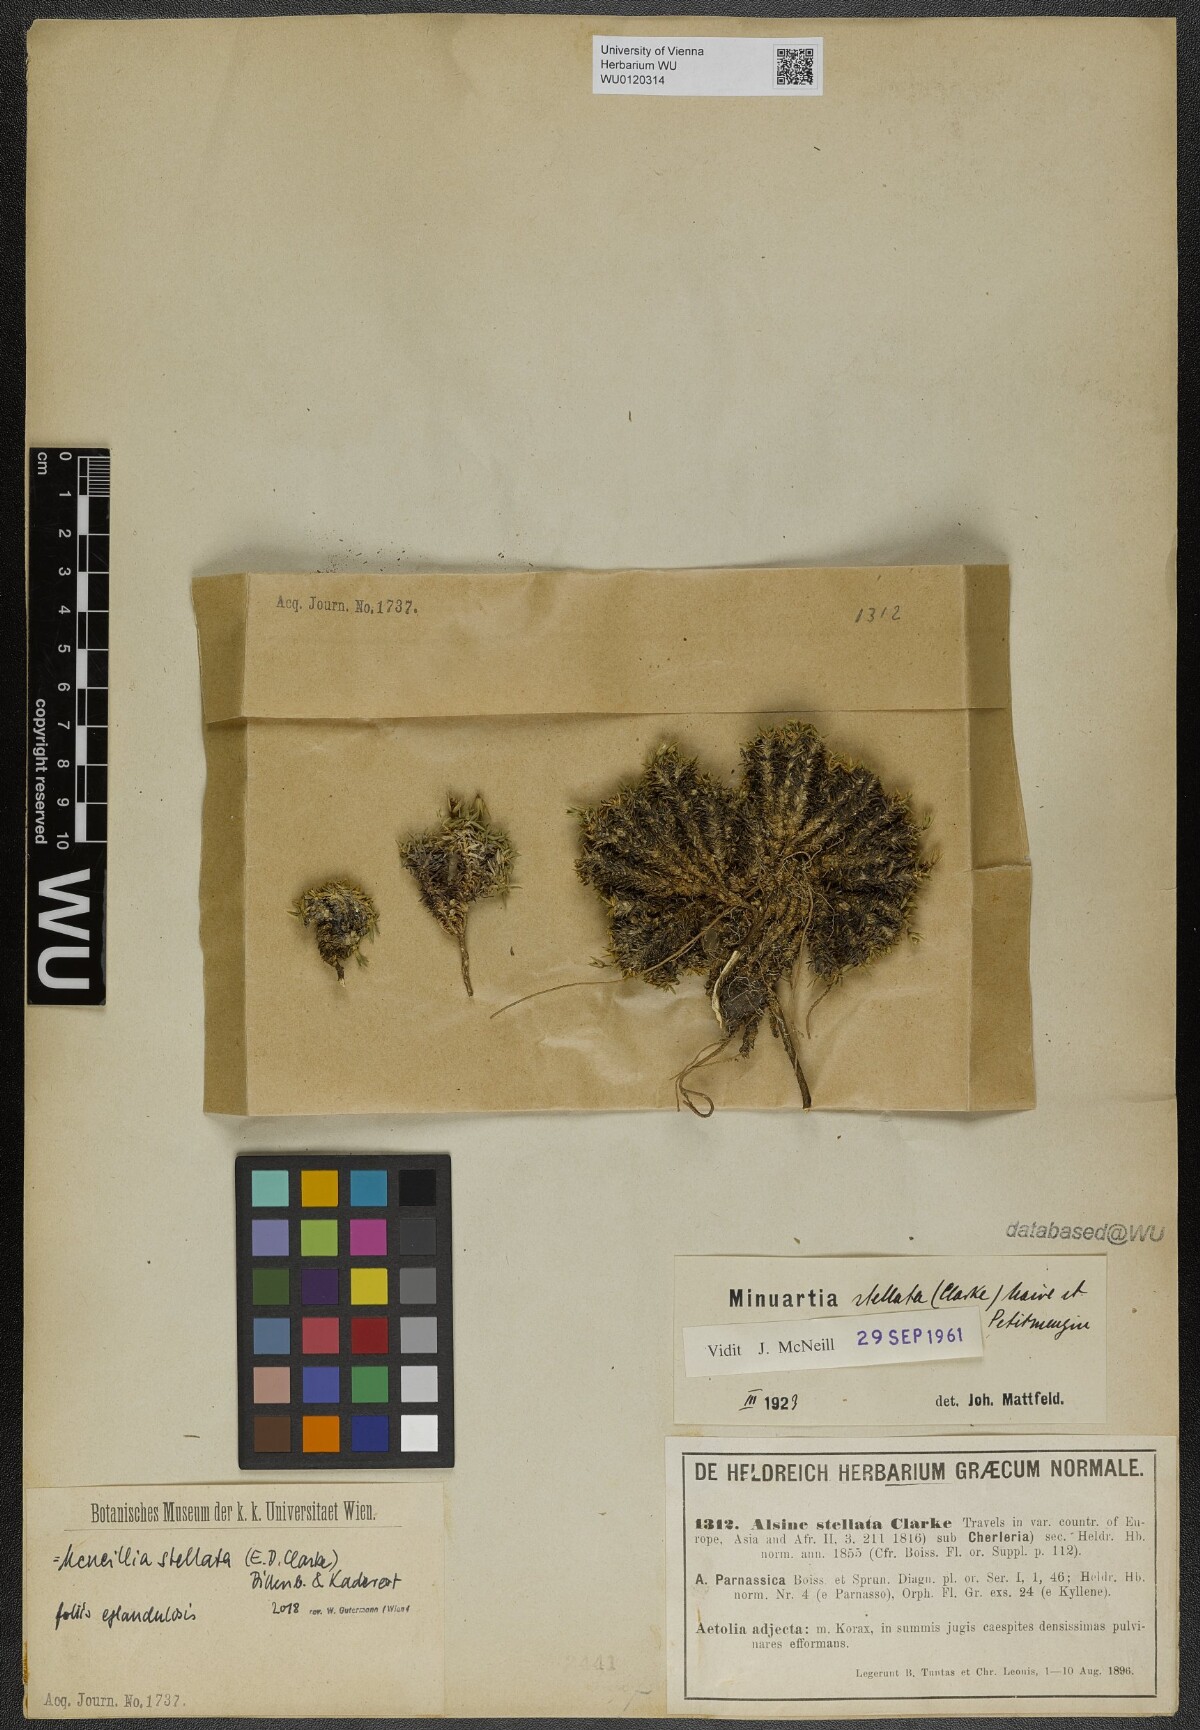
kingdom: Plantae
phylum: Tracheophyta
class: Magnoliopsida
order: Caryophyllales
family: Caryophyllaceae
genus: Mcneillia
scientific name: Mcneillia stellata
